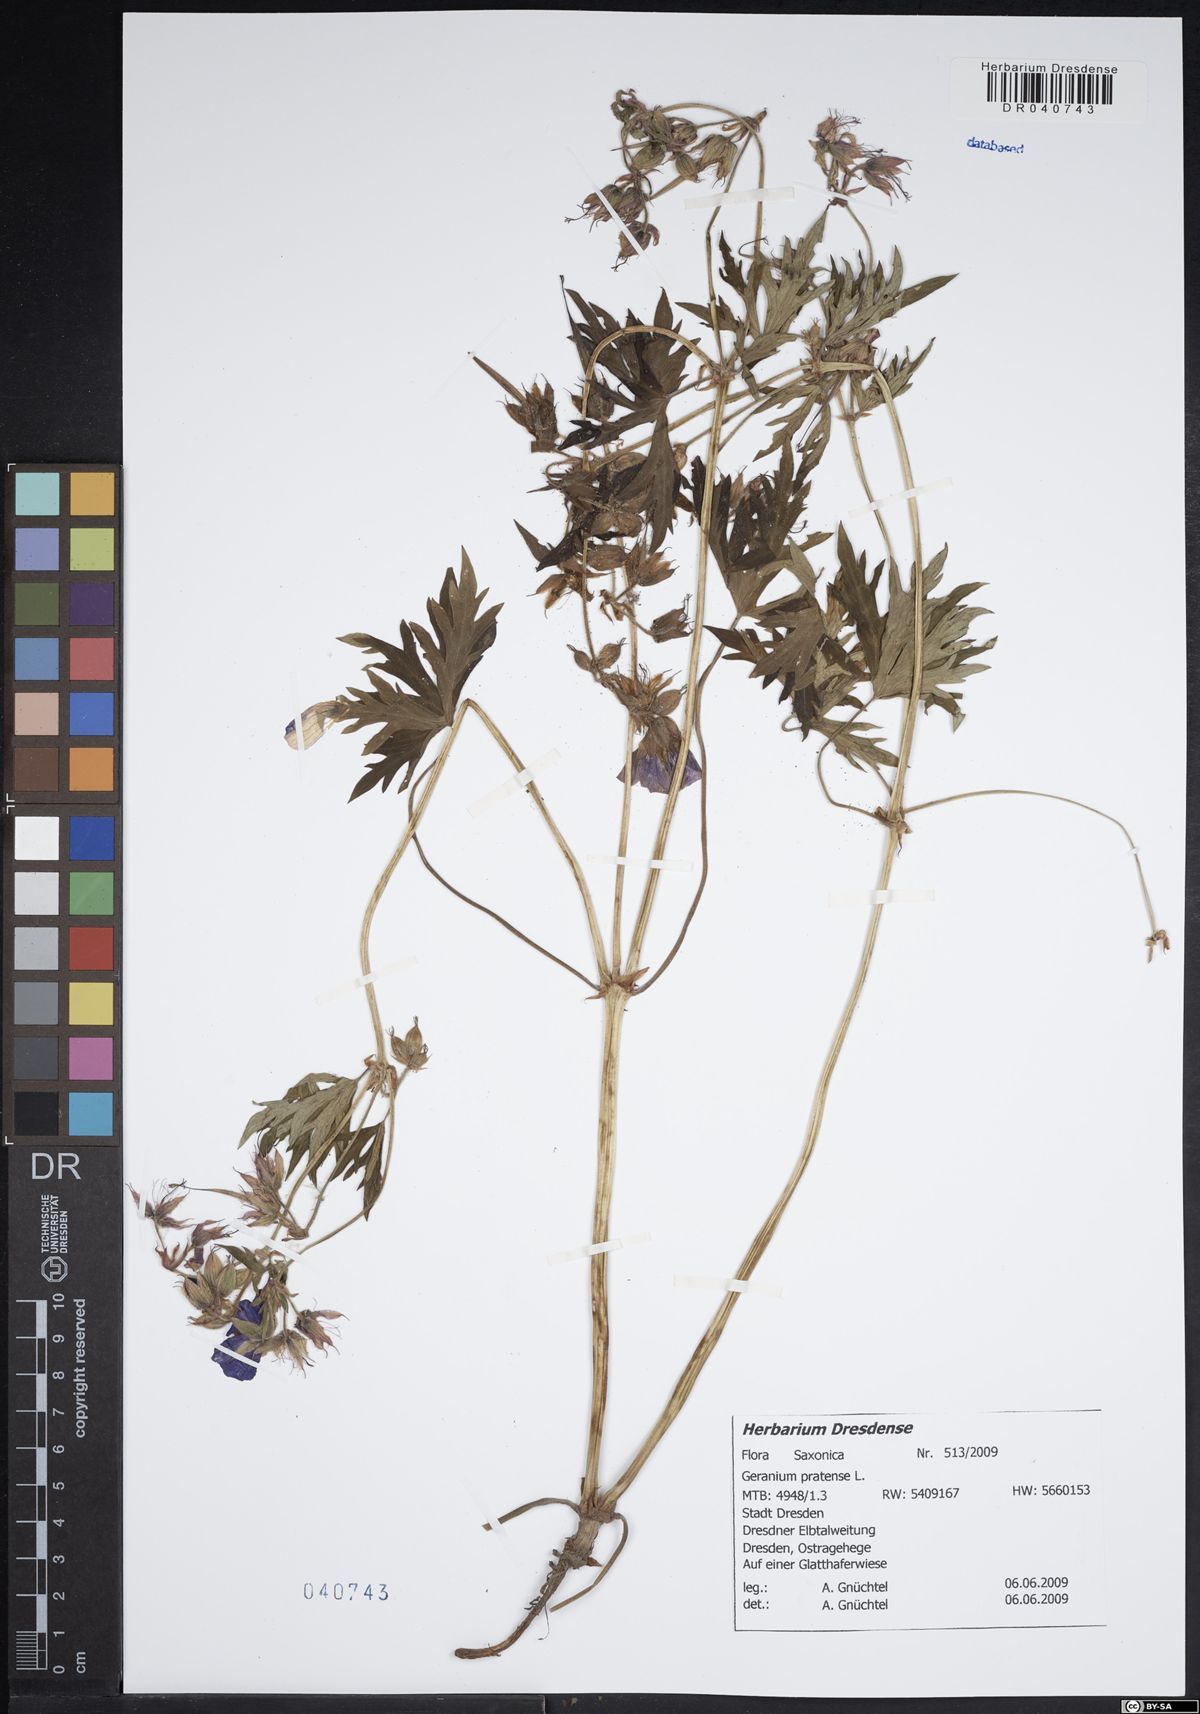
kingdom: Plantae
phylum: Tracheophyta
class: Magnoliopsida
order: Geraniales
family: Geraniaceae
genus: Geranium
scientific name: Geranium pratense
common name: Meadow crane's-bill
